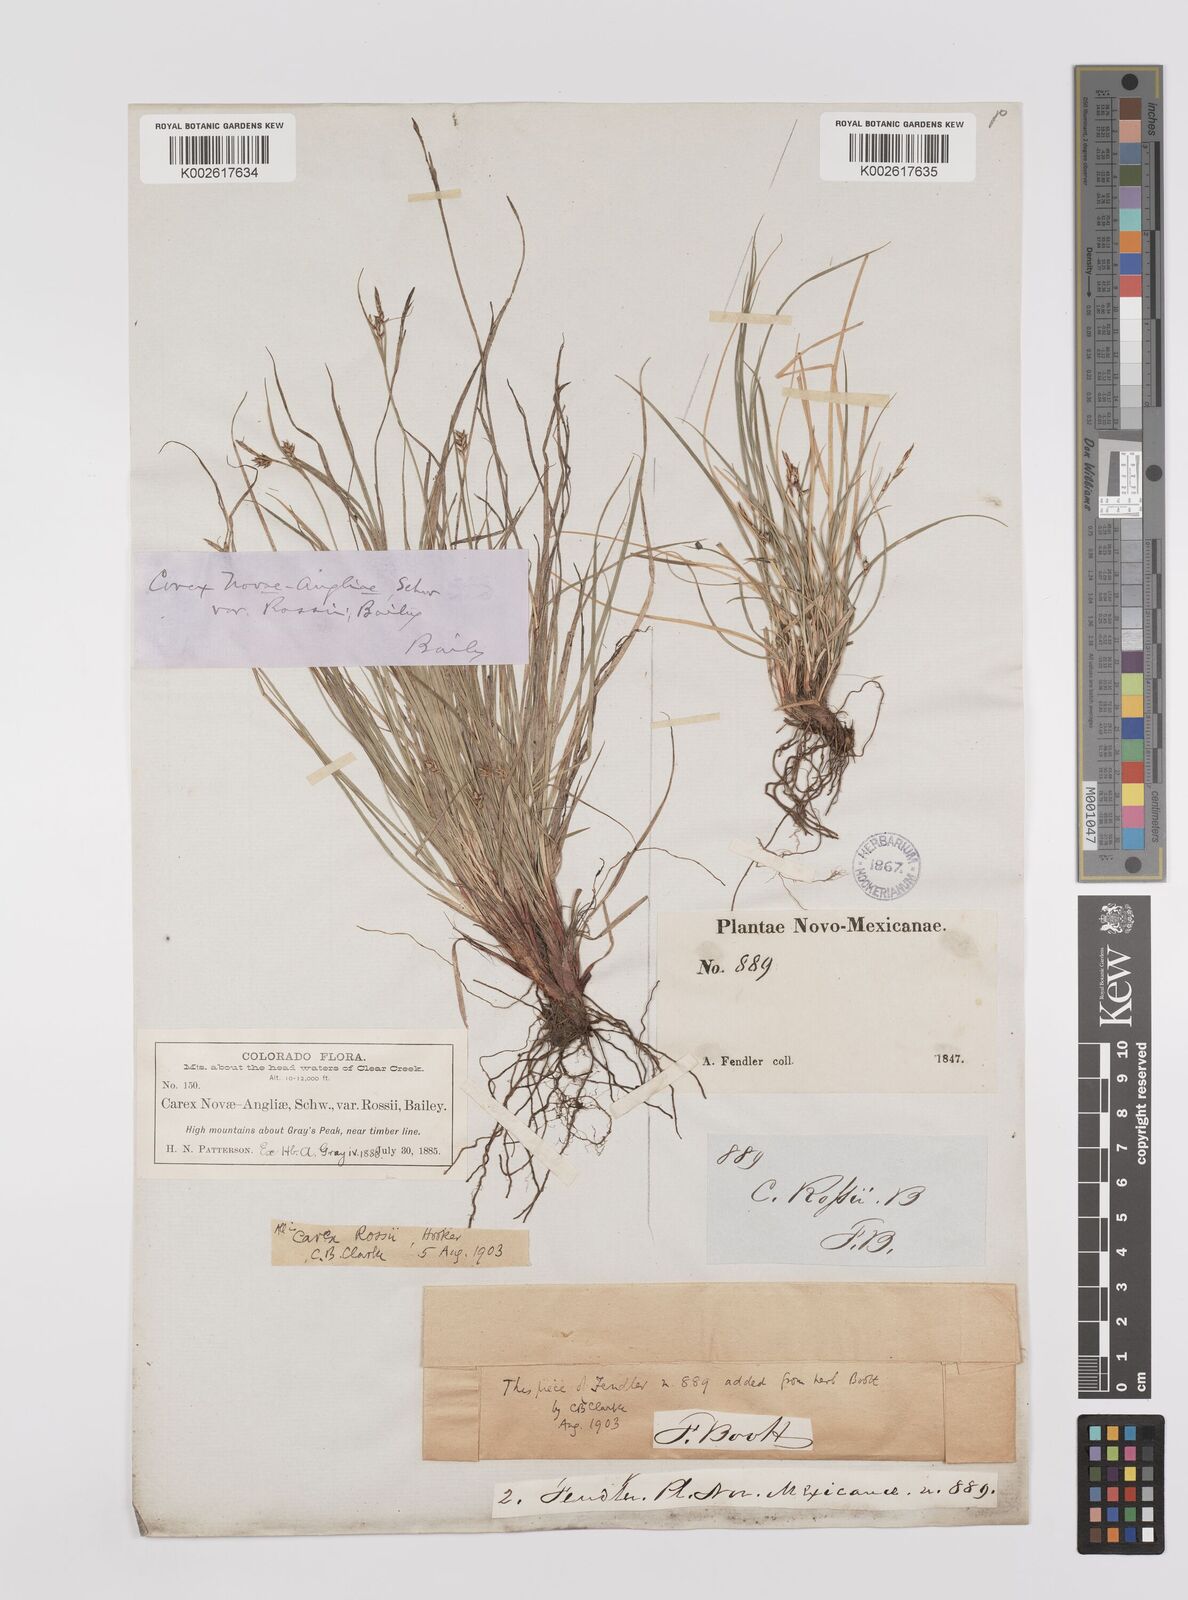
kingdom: Plantae
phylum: Tracheophyta
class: Liliopsida
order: Poales
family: Cyperaceae
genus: Carex
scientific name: Carex rossii
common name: Ross' sedge
